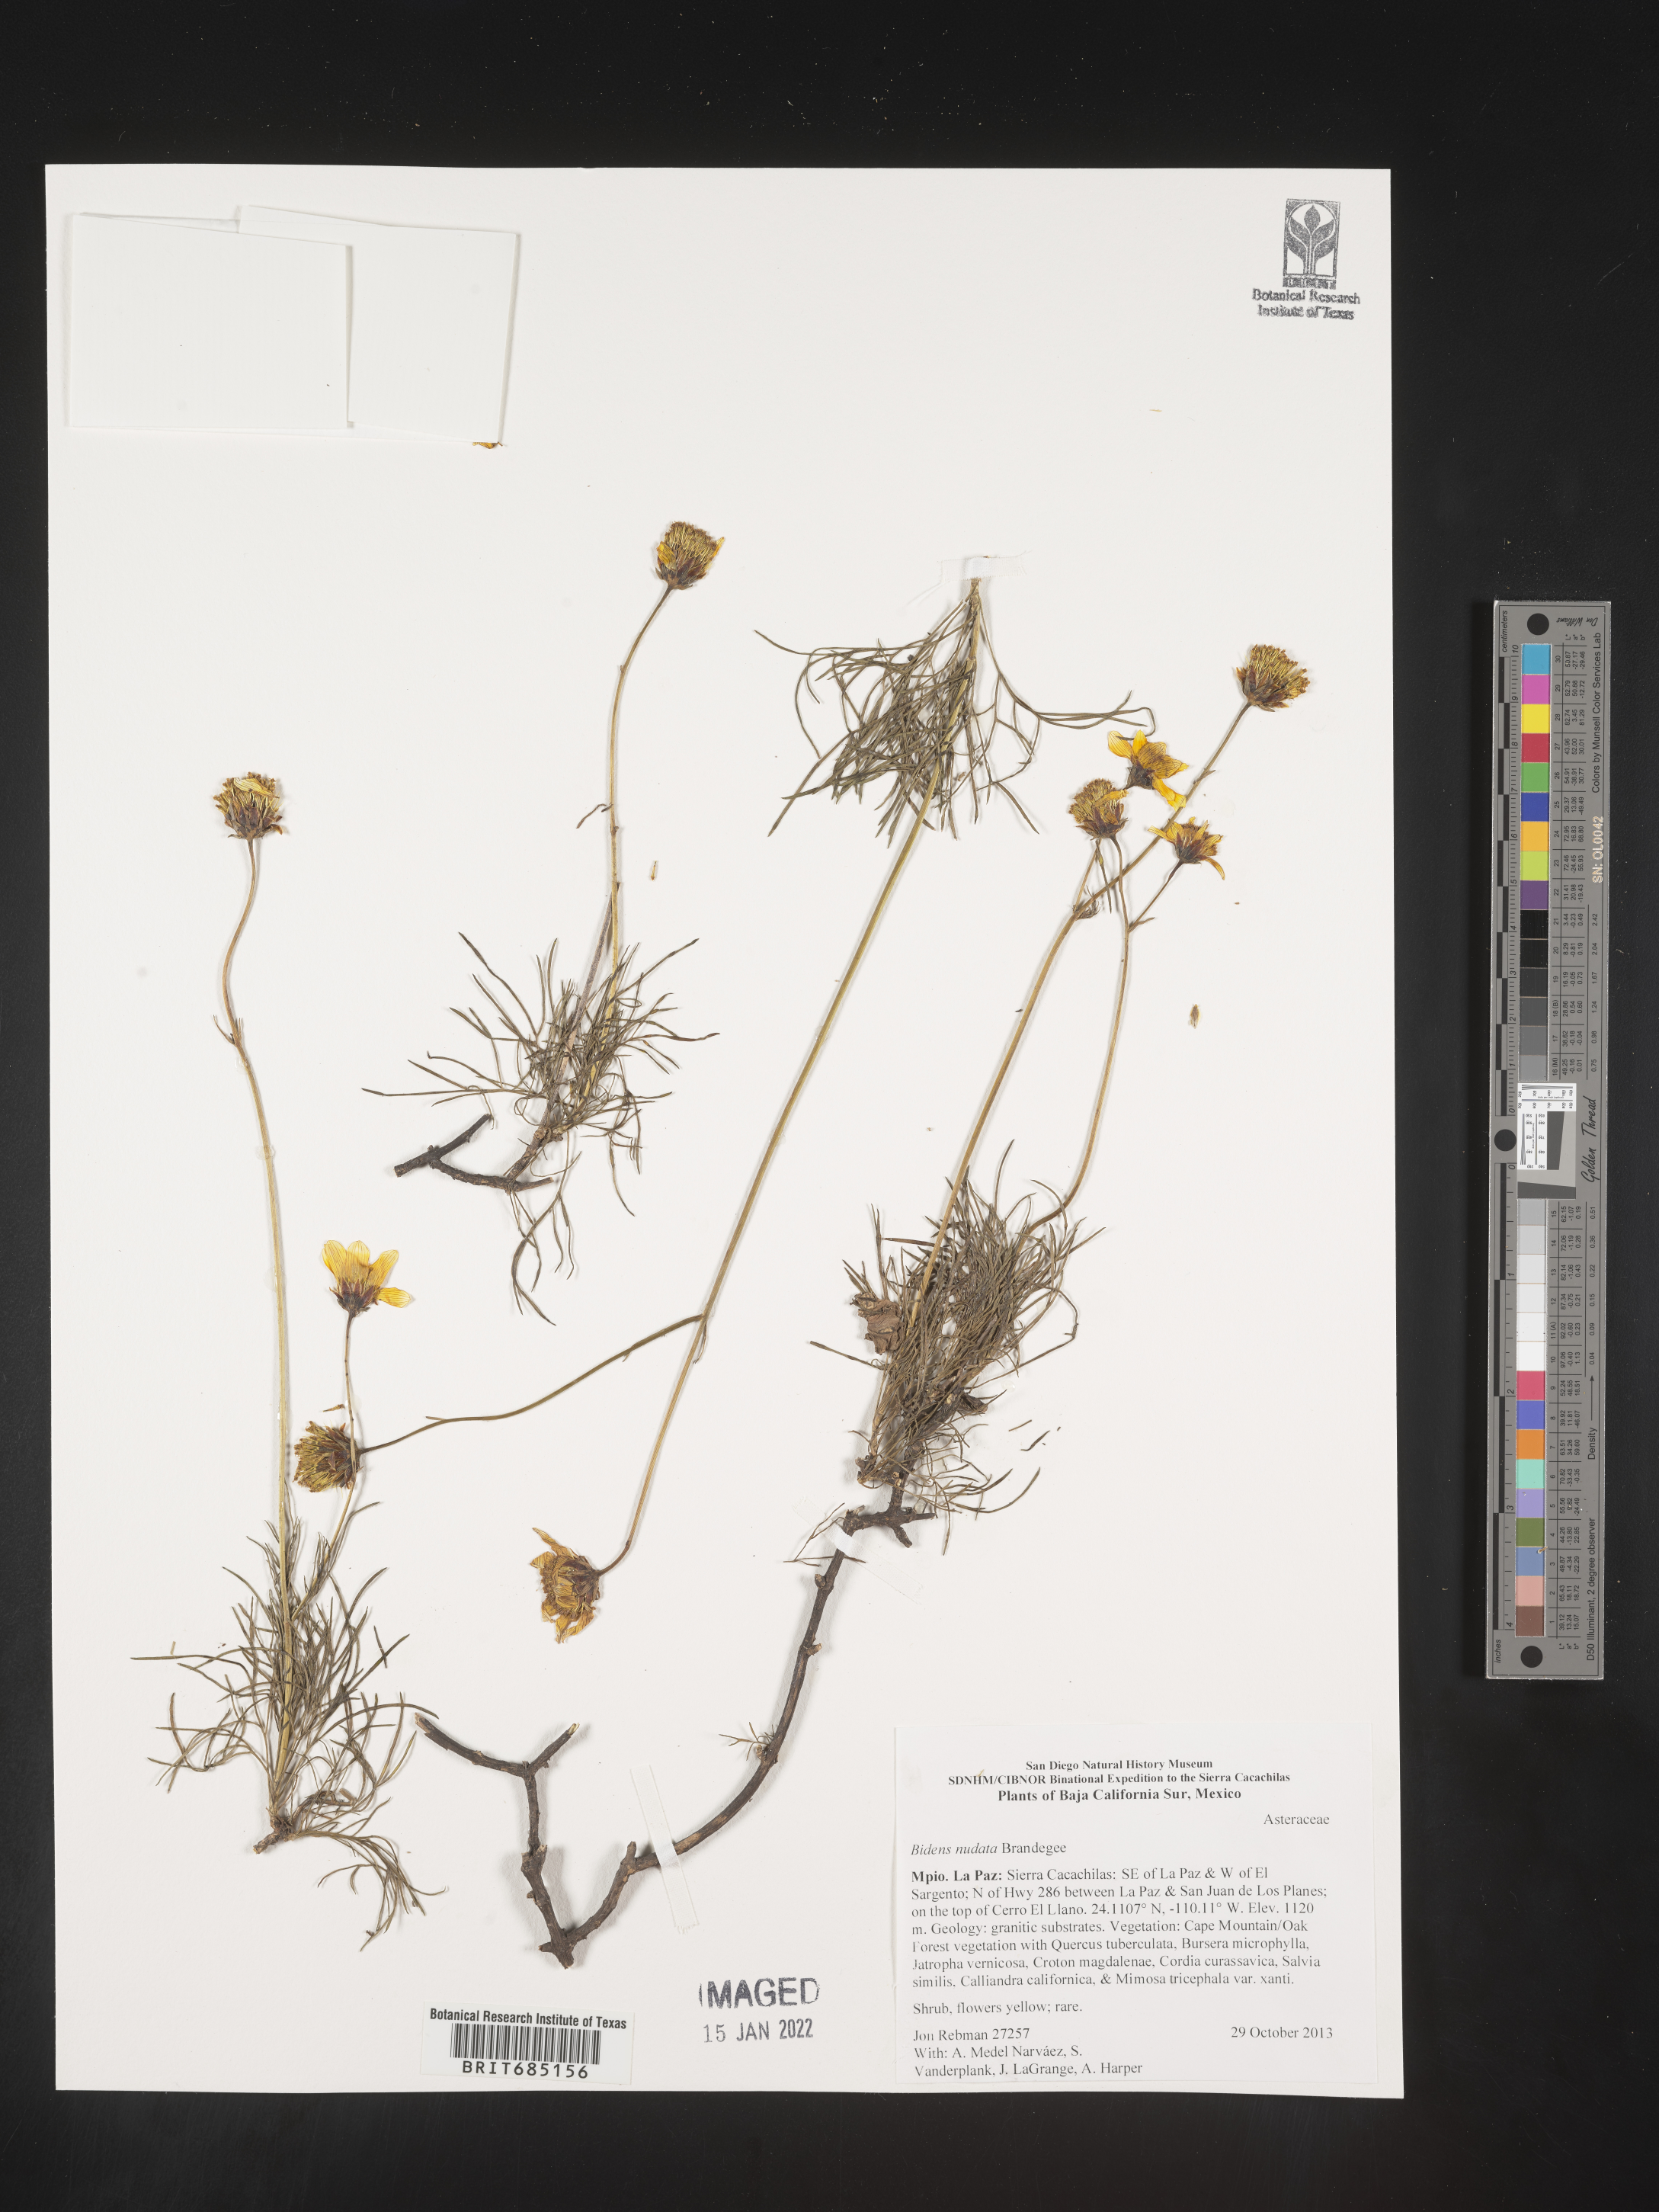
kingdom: Plantae
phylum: Tracheophyta
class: Magnoliopsida
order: Asterales
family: Asteraceae
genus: Bidens
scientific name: Bidens
